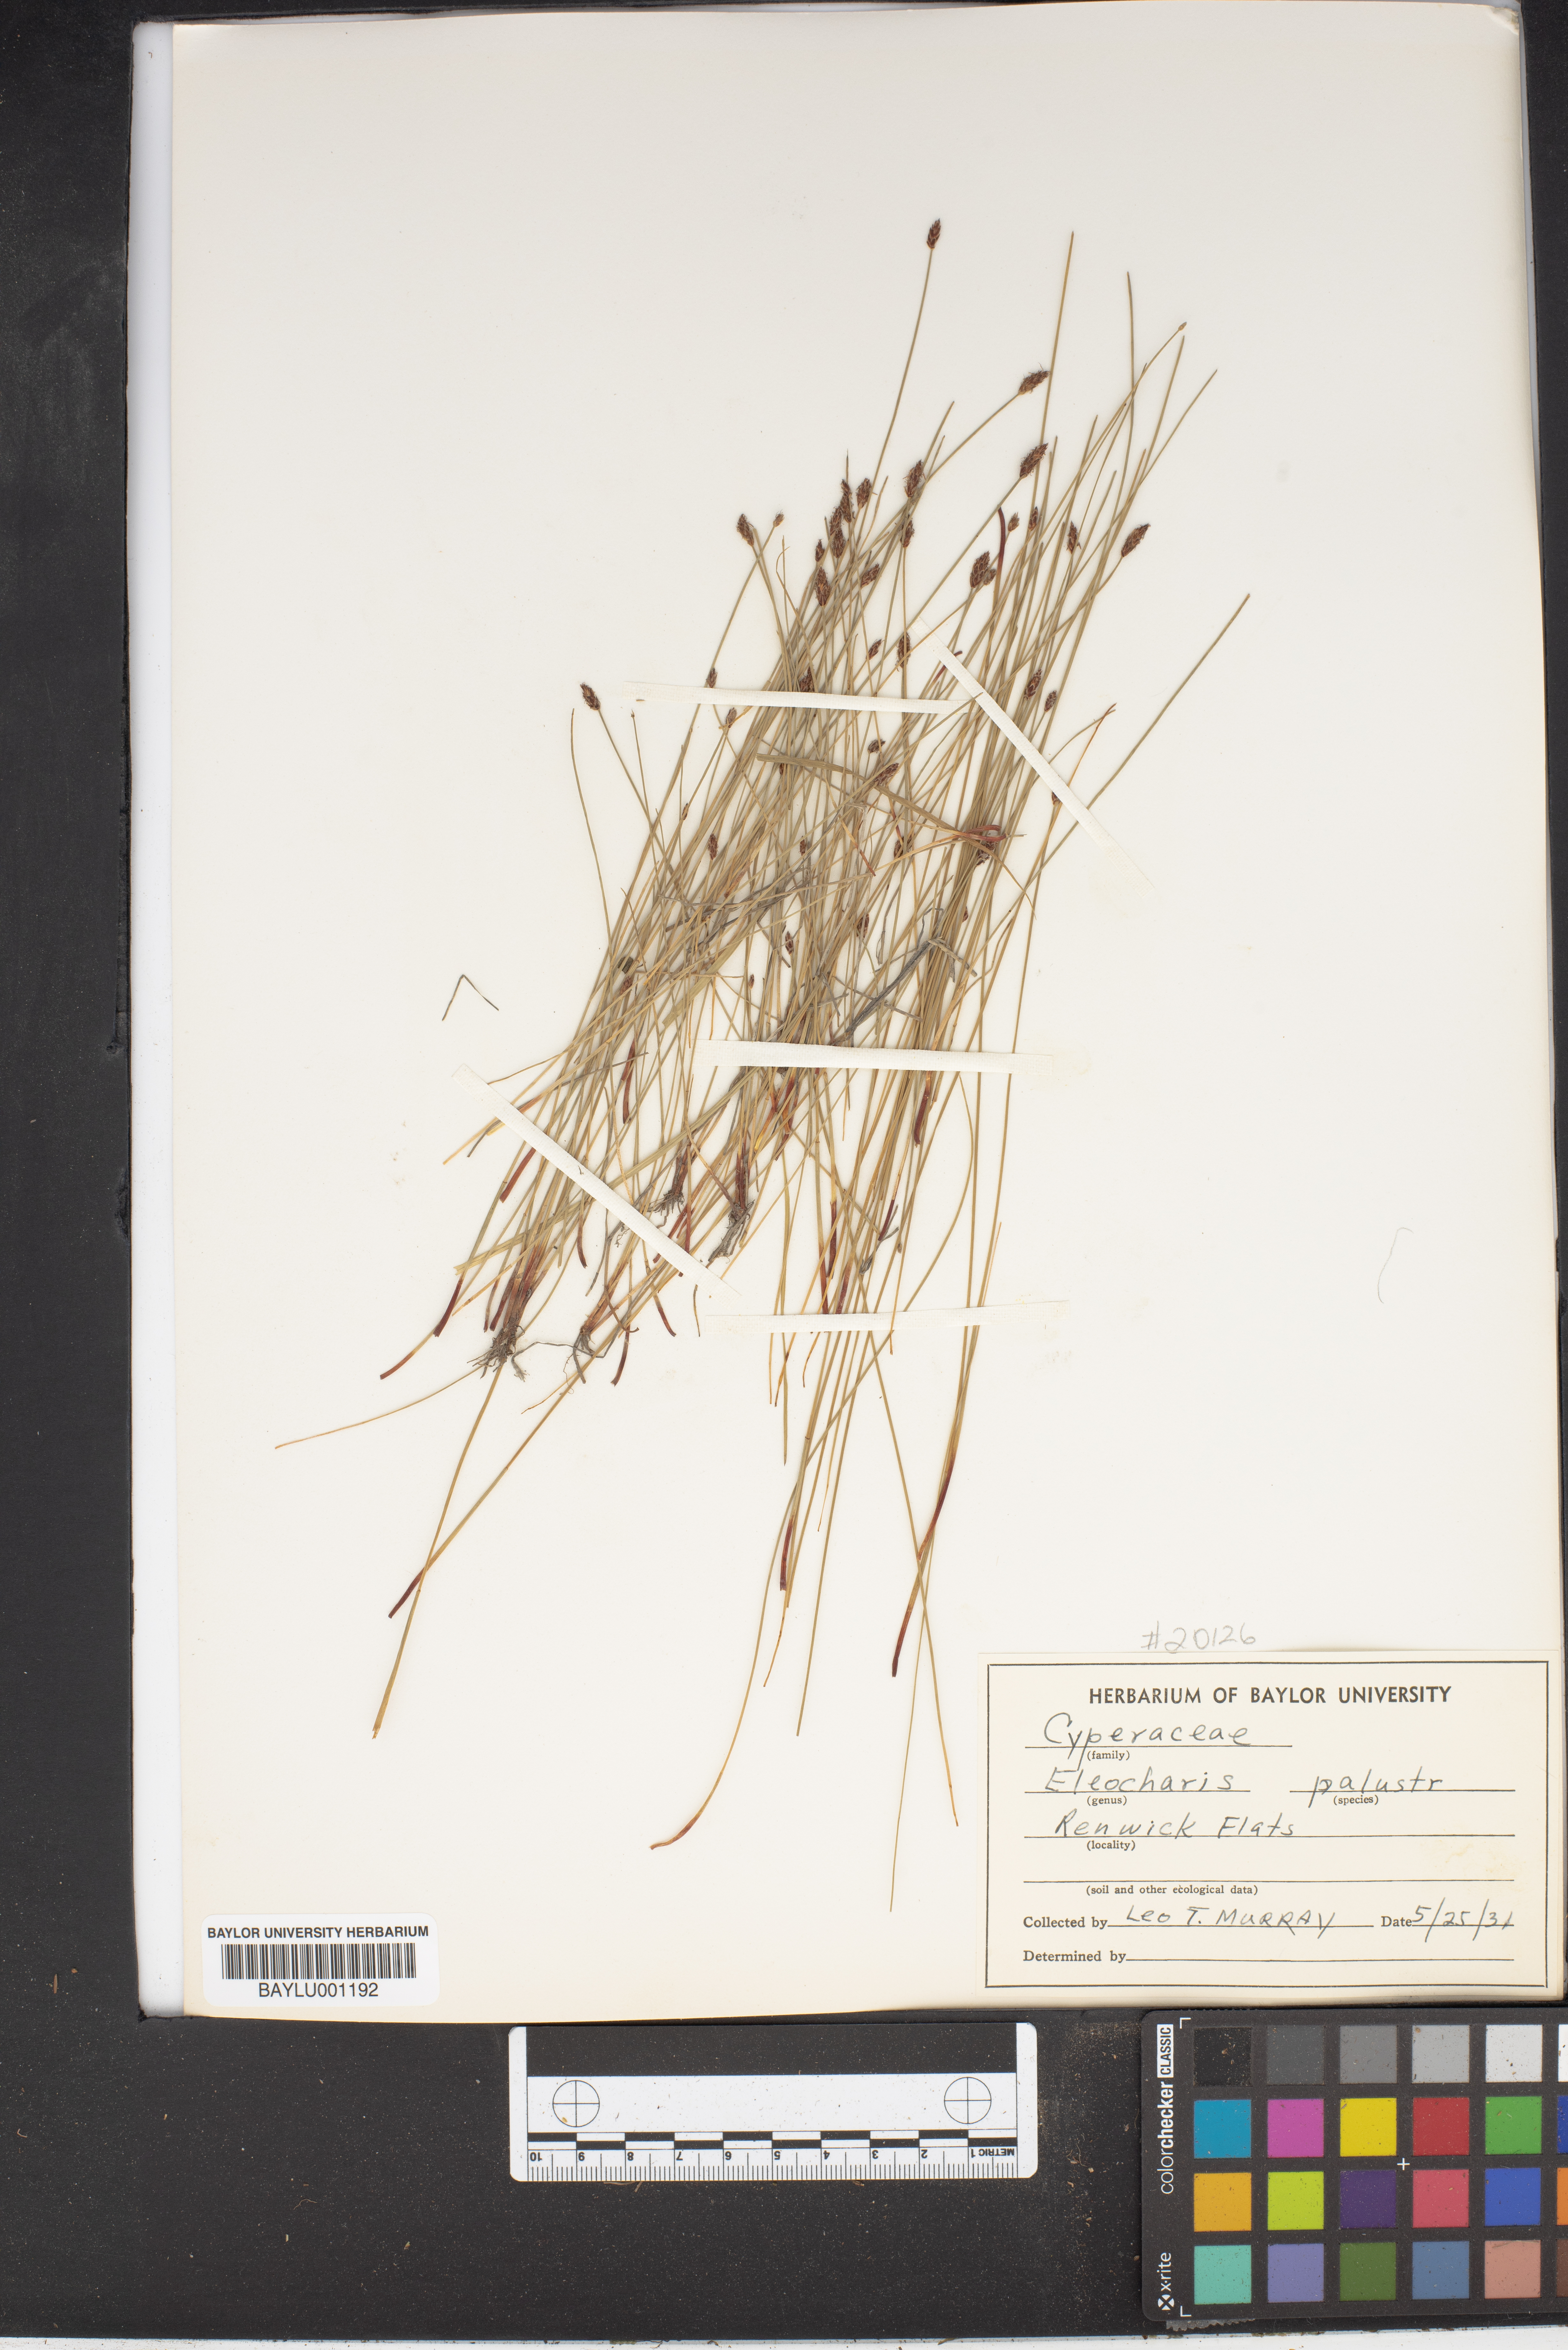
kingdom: Plantae
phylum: Tracheophyta
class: Liliopsida
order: Poales
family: Cyperaceae
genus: Eleocharis
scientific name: Eleocharis palustris
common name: Common spike-rush
